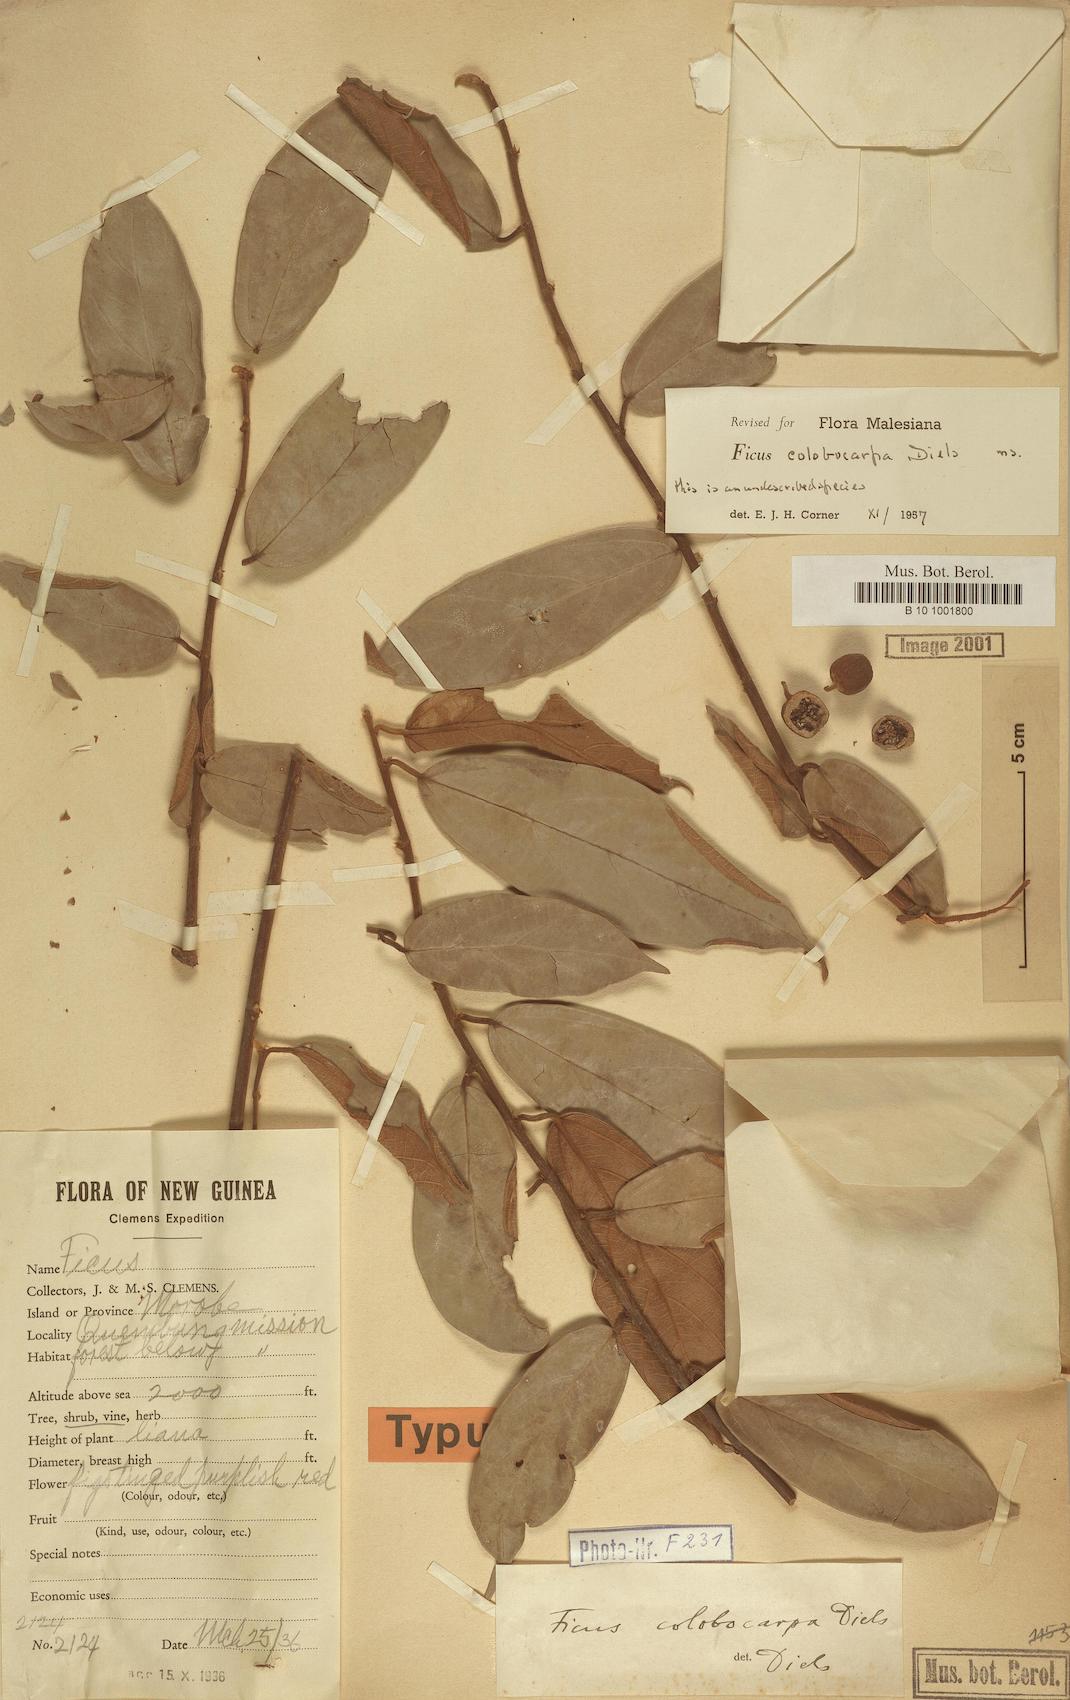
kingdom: Plantae
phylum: Tracheophyta
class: Magnoliopsida
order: Rosales
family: Moraceae
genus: Ficus
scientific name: Ficus colobocarpa
